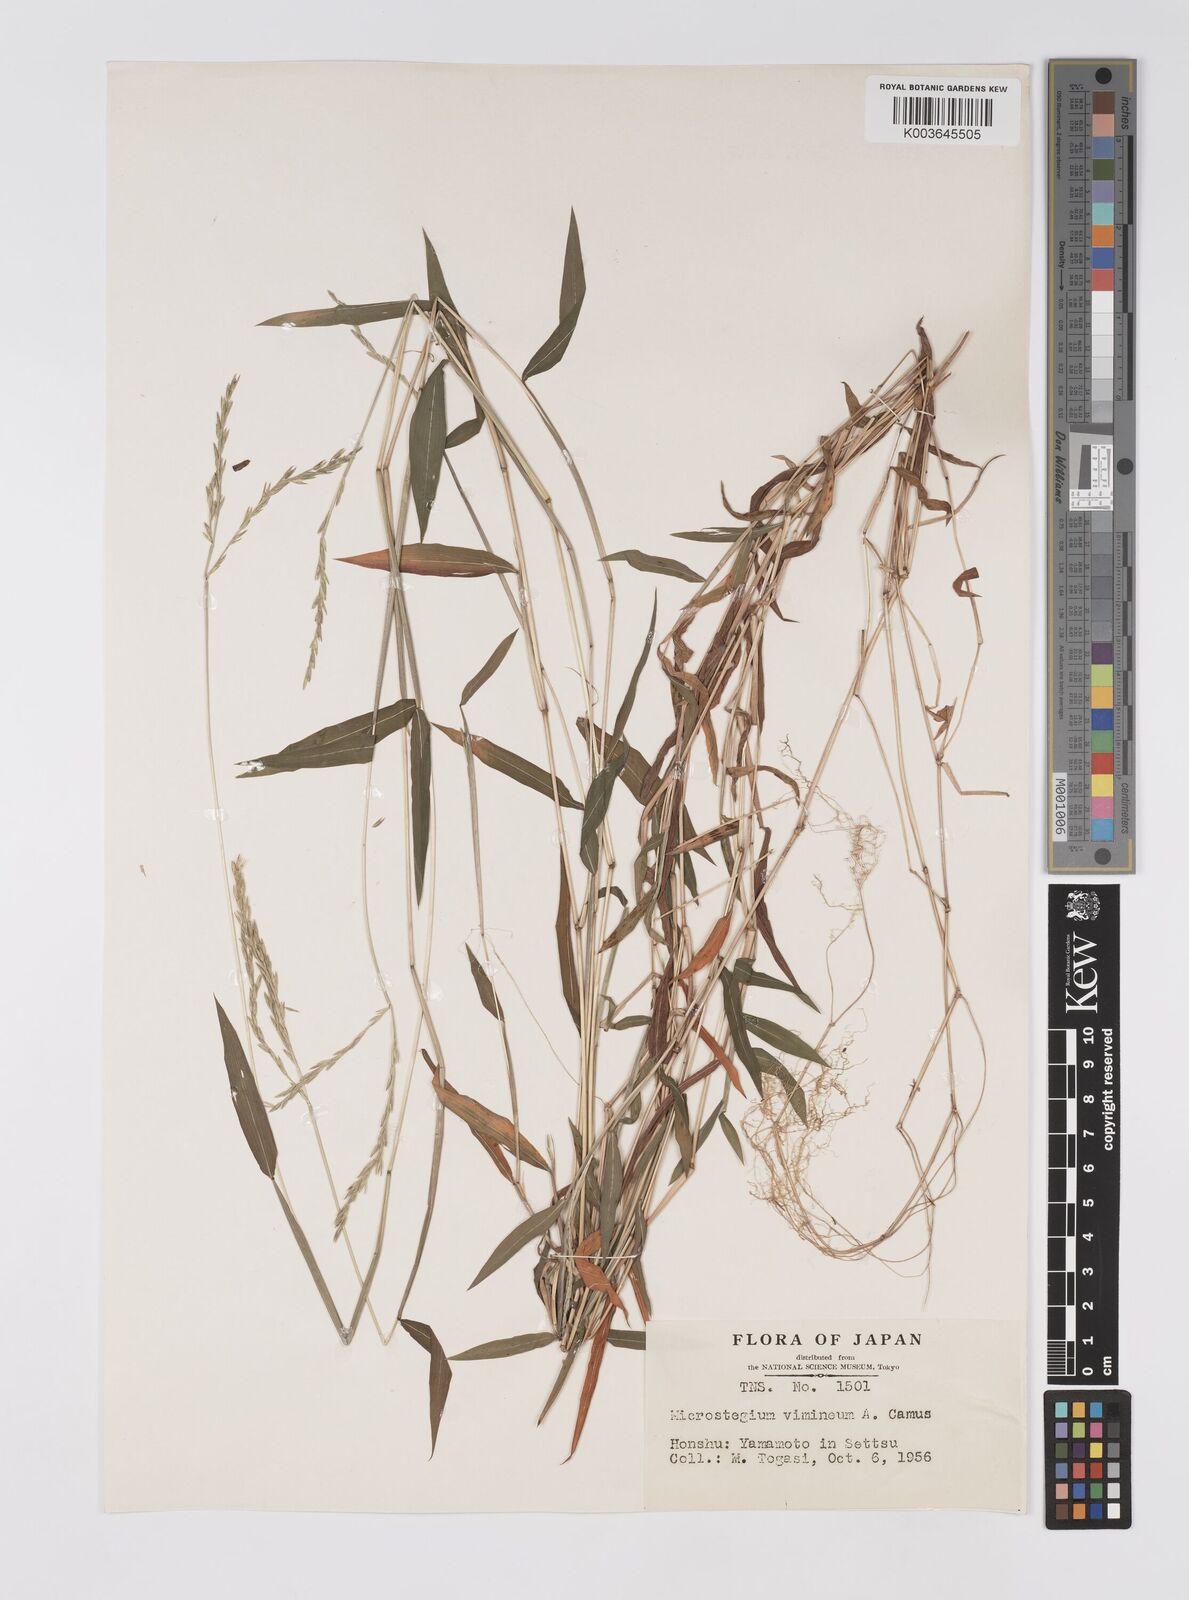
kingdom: Plantae
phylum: Tracheophyta
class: Liliopsida
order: Poales
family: Poaceae
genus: Microstegium
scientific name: Microstegium vimineum
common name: Japanese stiltgrass
